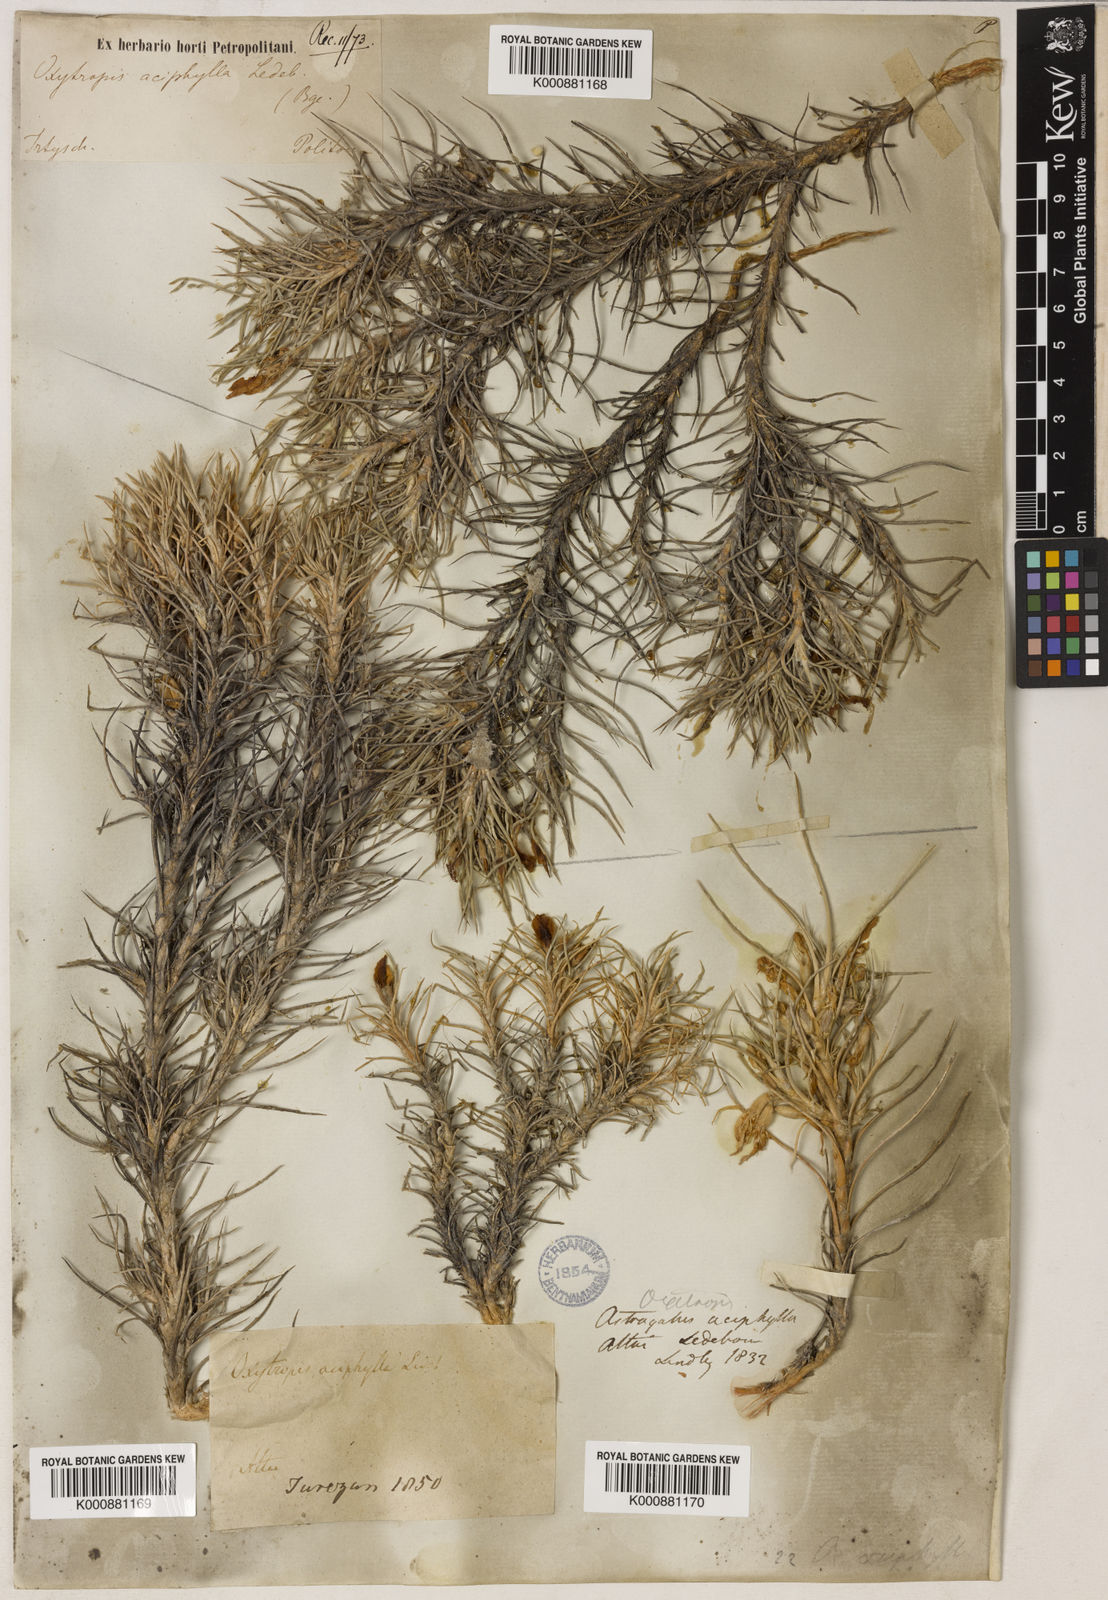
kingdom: Plantae
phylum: Tracheophyta
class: Magnoliopsida
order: Fabales
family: Fabaceae
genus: Oxytropis
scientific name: Oxytropis aciphylla
